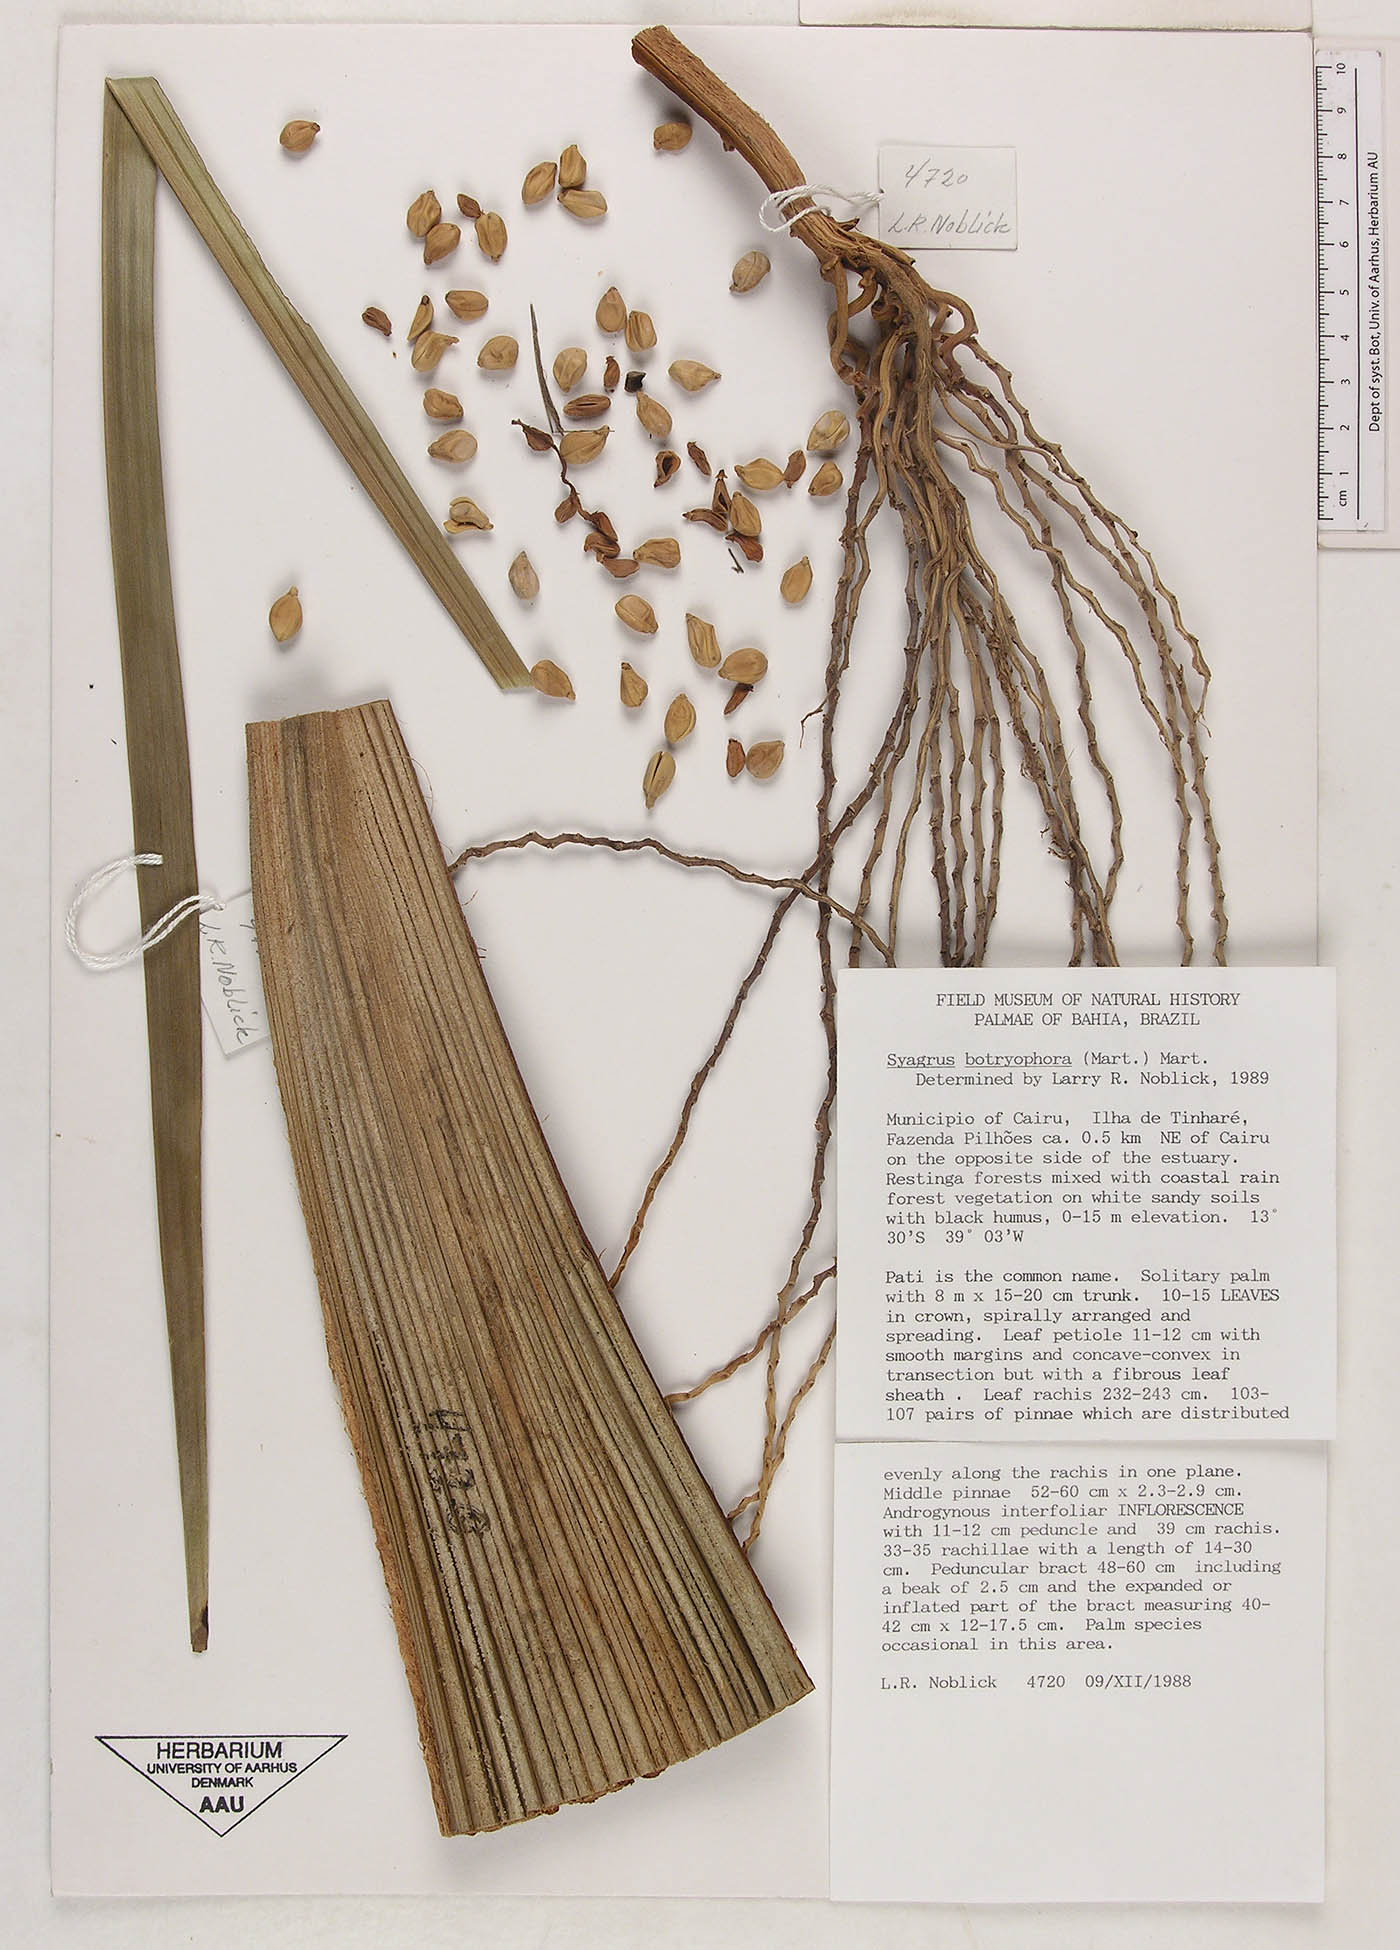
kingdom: Plantae
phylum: Tracheophyta
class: Liliopsida
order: Arecales
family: Arecaceae
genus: Syagrus
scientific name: Syagrus botryophora
